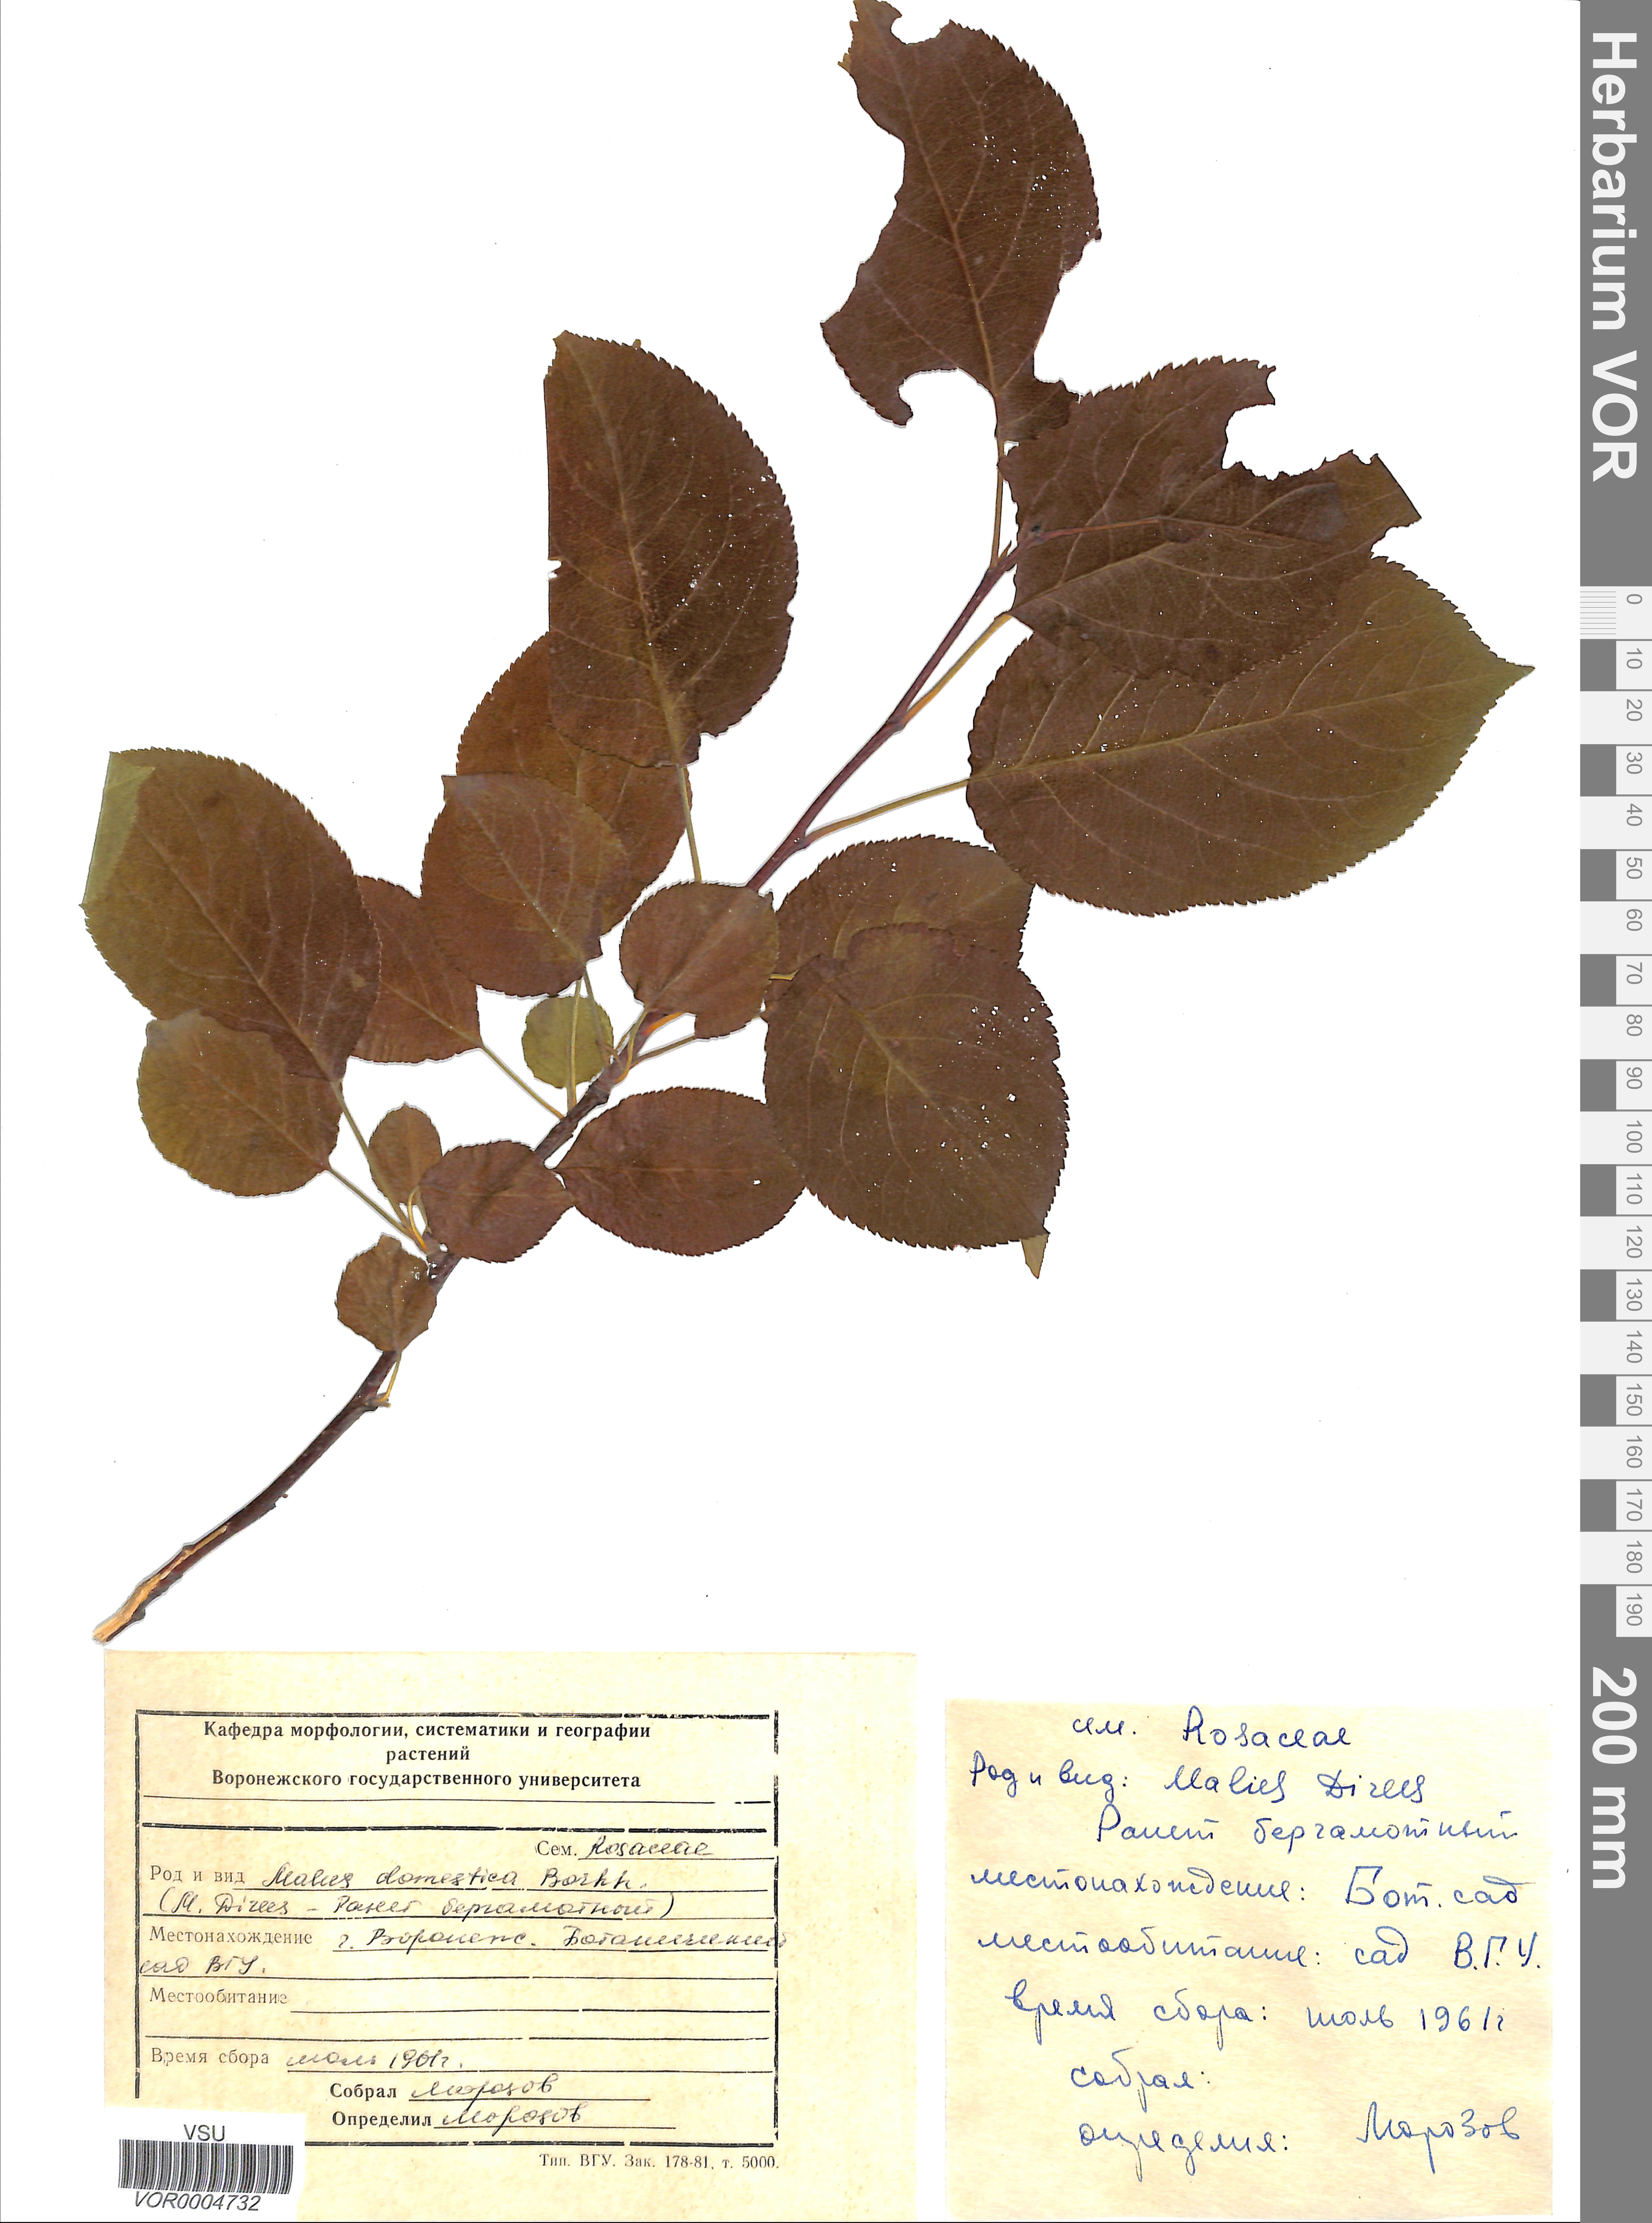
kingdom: Plantae
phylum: Tracheophyta
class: Magnoliopsida
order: Rosales
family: Rosaceae
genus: Malus
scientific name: Malus domestica
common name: Apple
